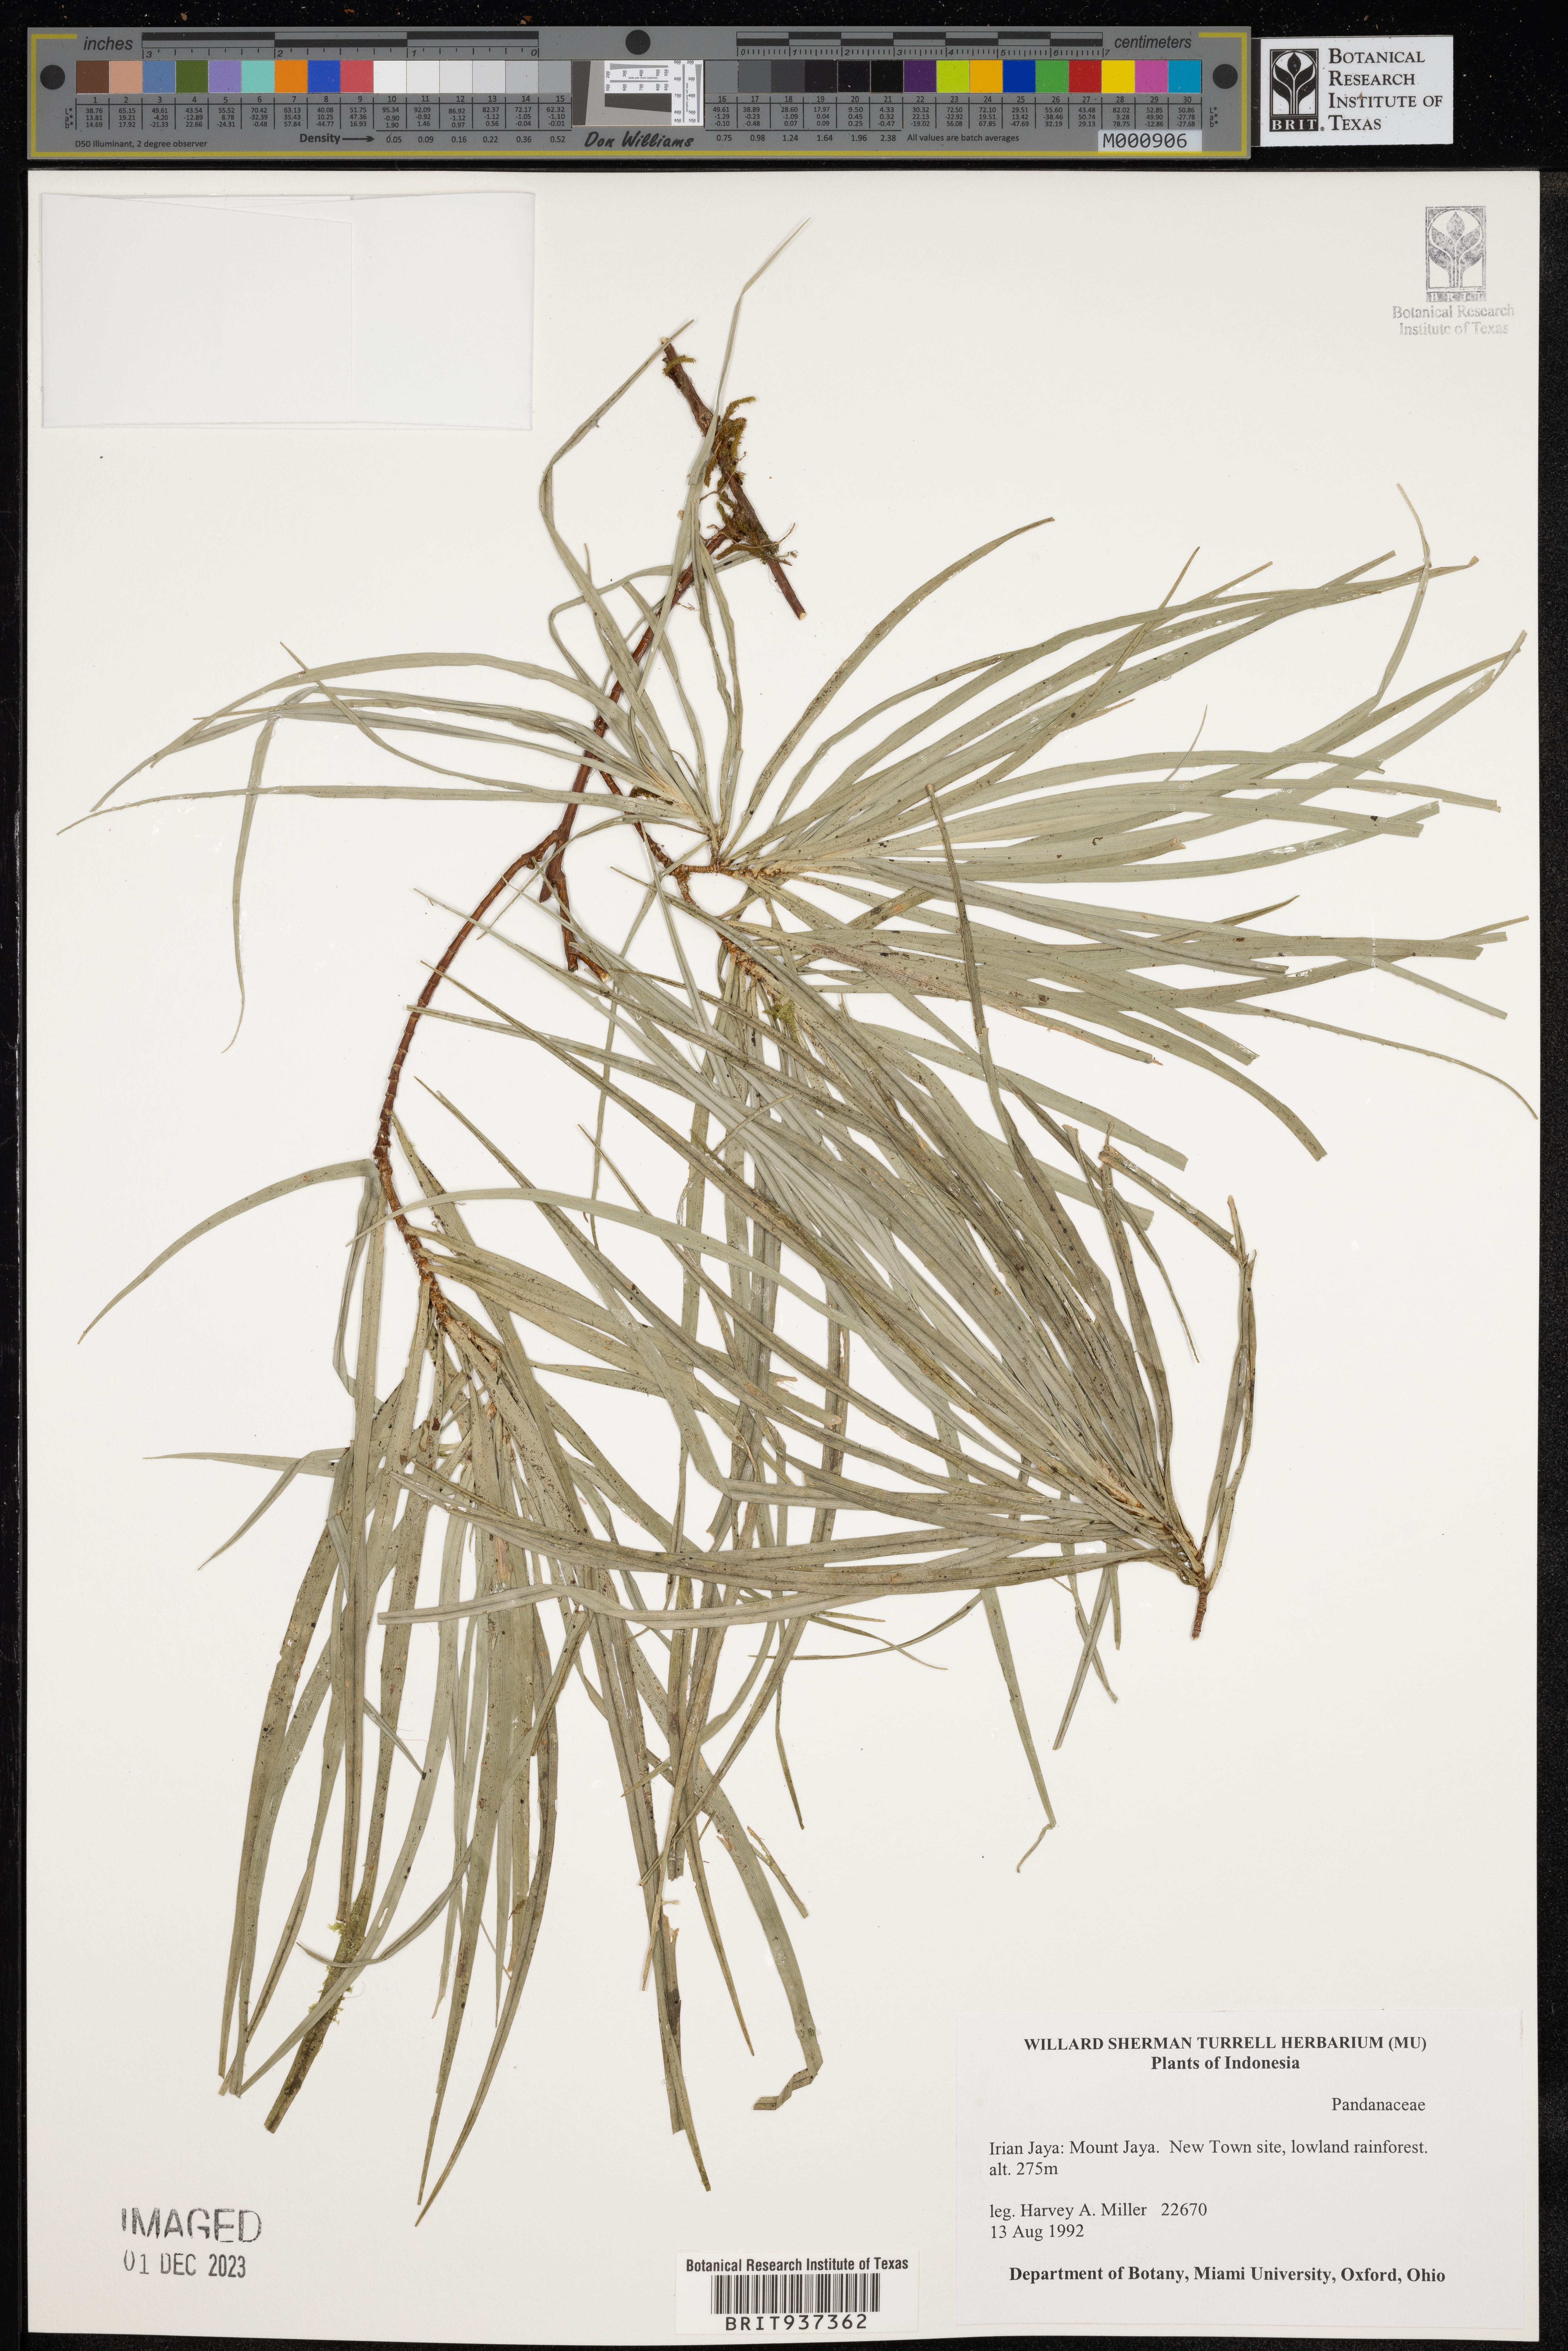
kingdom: Plantae
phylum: Tracheophyta
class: Liliopsida
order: Pandanales
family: Pandanaceae
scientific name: Pandanaceae
